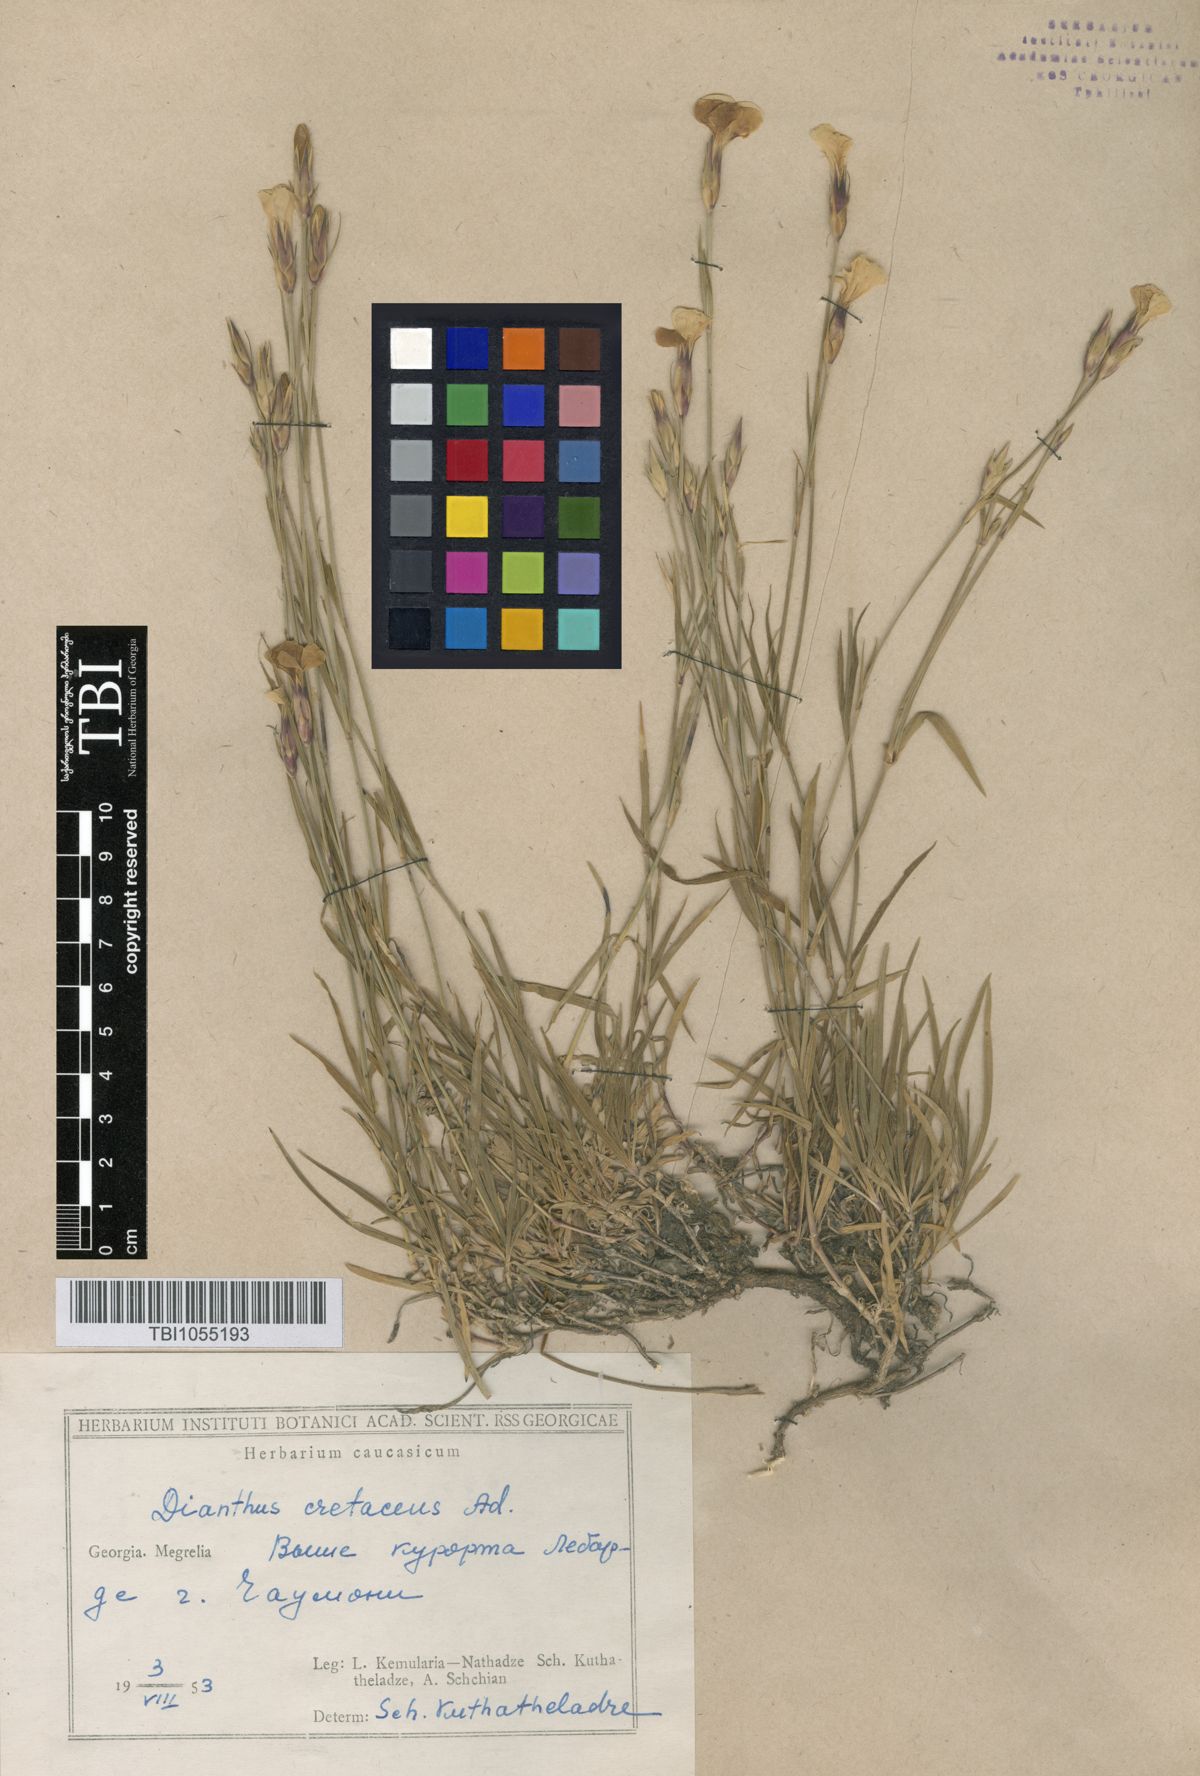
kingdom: Plantae
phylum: Tracheophyta
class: Magnoliopsida
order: Caryophyllales
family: Caryophyllaceae
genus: Dianthus
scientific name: Dianthus cretaceus
